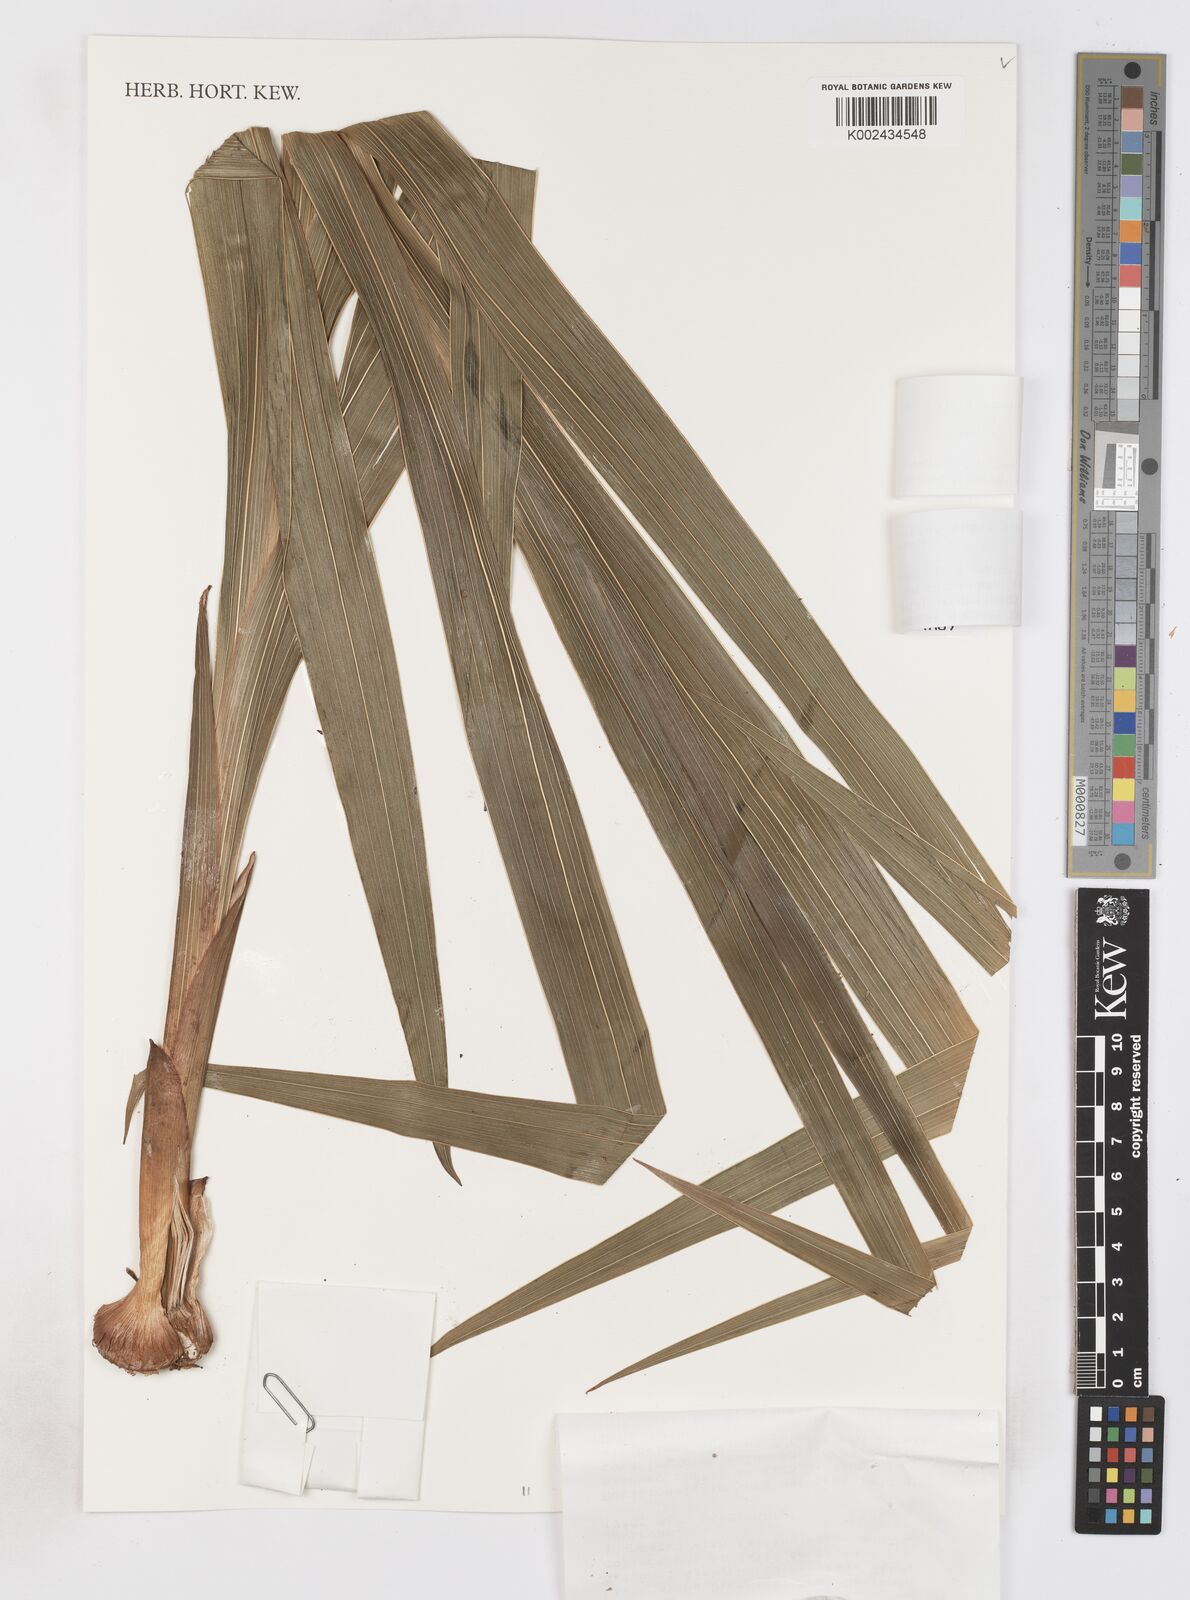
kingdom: Plantae
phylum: Tracheophyta
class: Liliopsida
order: Asparagales
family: Iridaceae
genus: Gladiolus
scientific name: Gladiolus dalenii
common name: Cornflag
